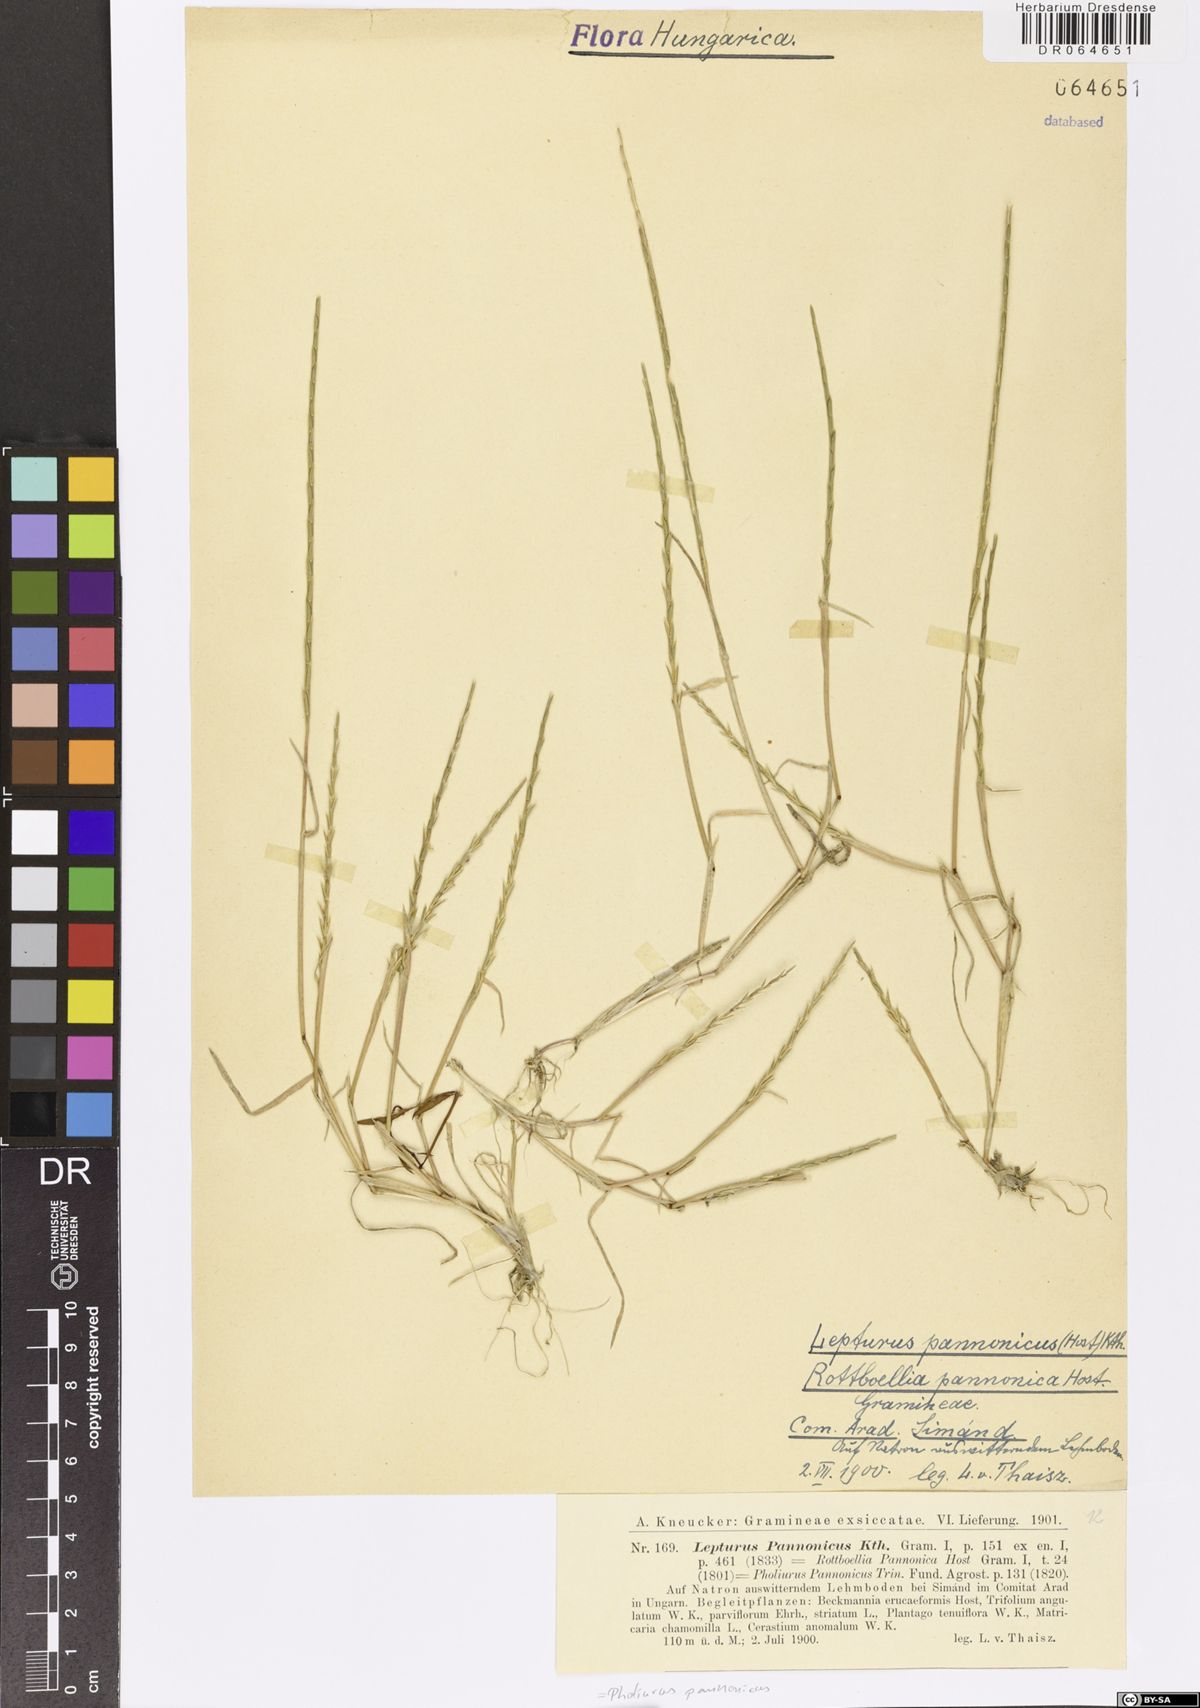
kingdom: Plantae
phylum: Tracheophyta
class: Liliopsida
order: Poales
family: Poaceae
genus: Pholiurus
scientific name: Pholiurus pannonicus
